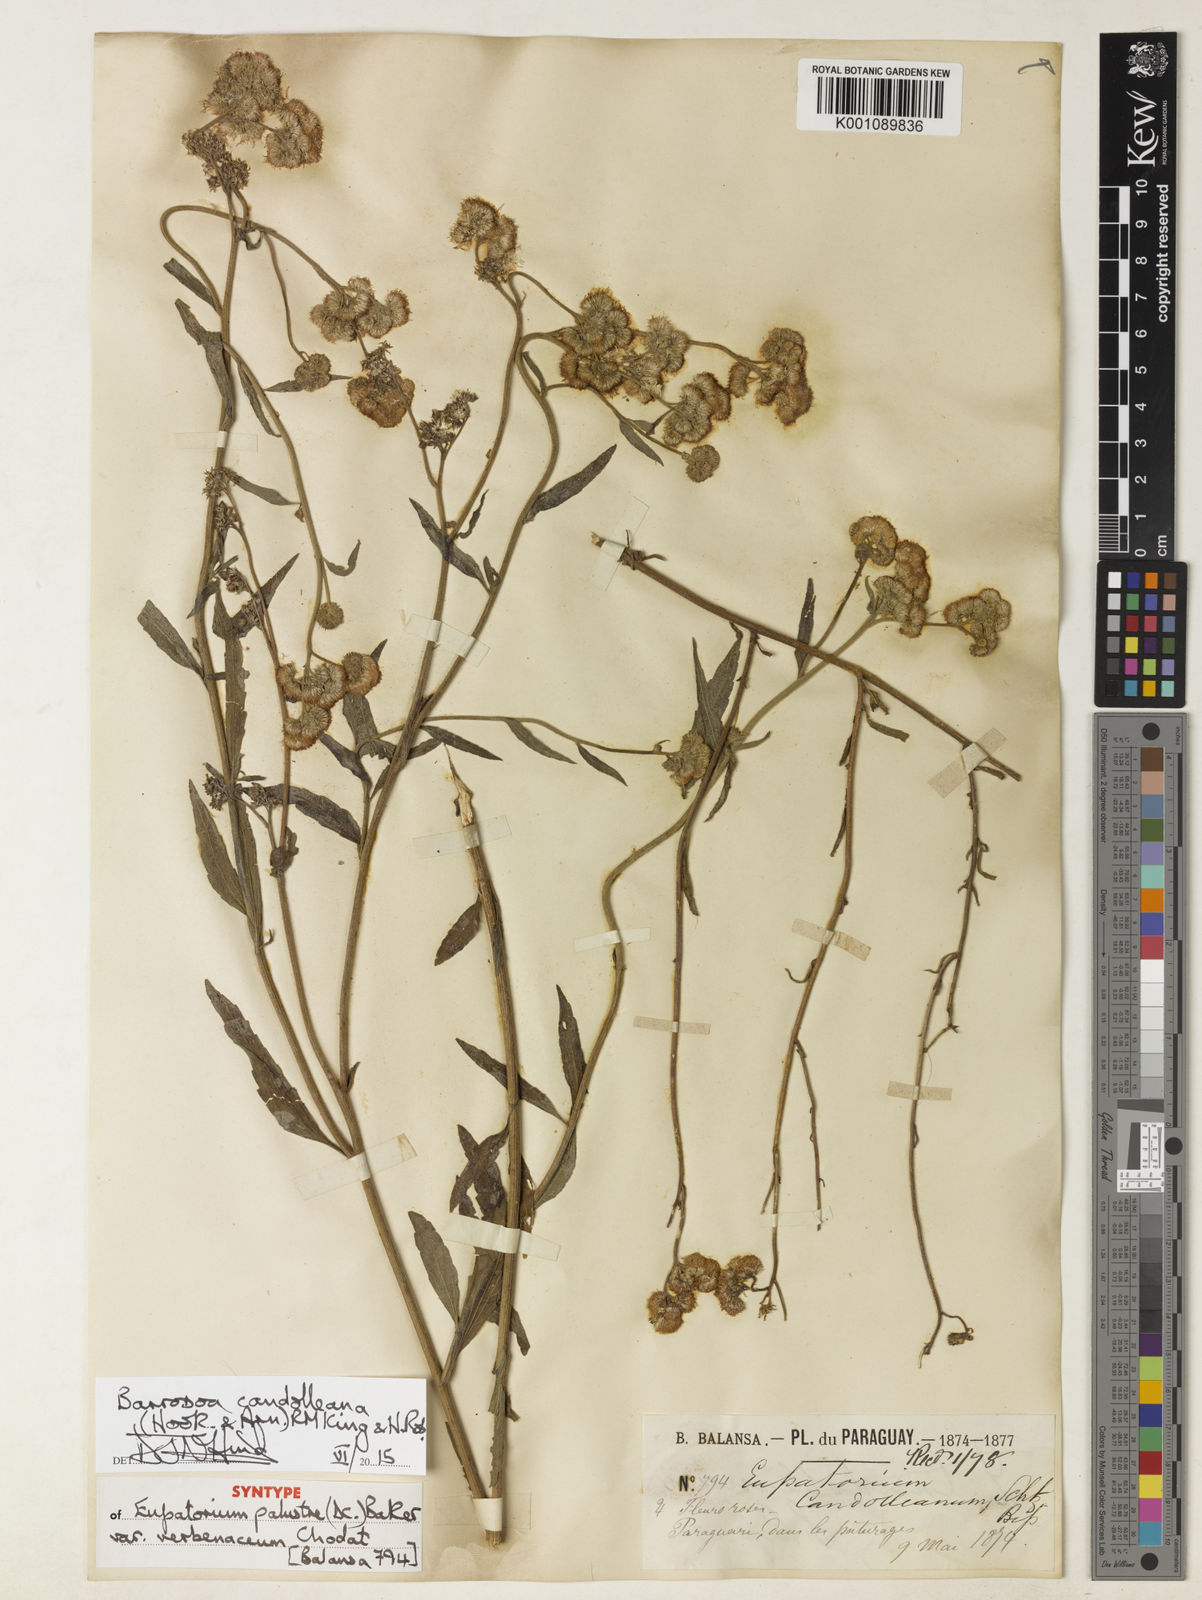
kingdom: Plantae
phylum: Tracheophyta
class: Magnoliopsida
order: Asterales
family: Asteraceae
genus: Barrosoa
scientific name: Barrosoa candolleana
